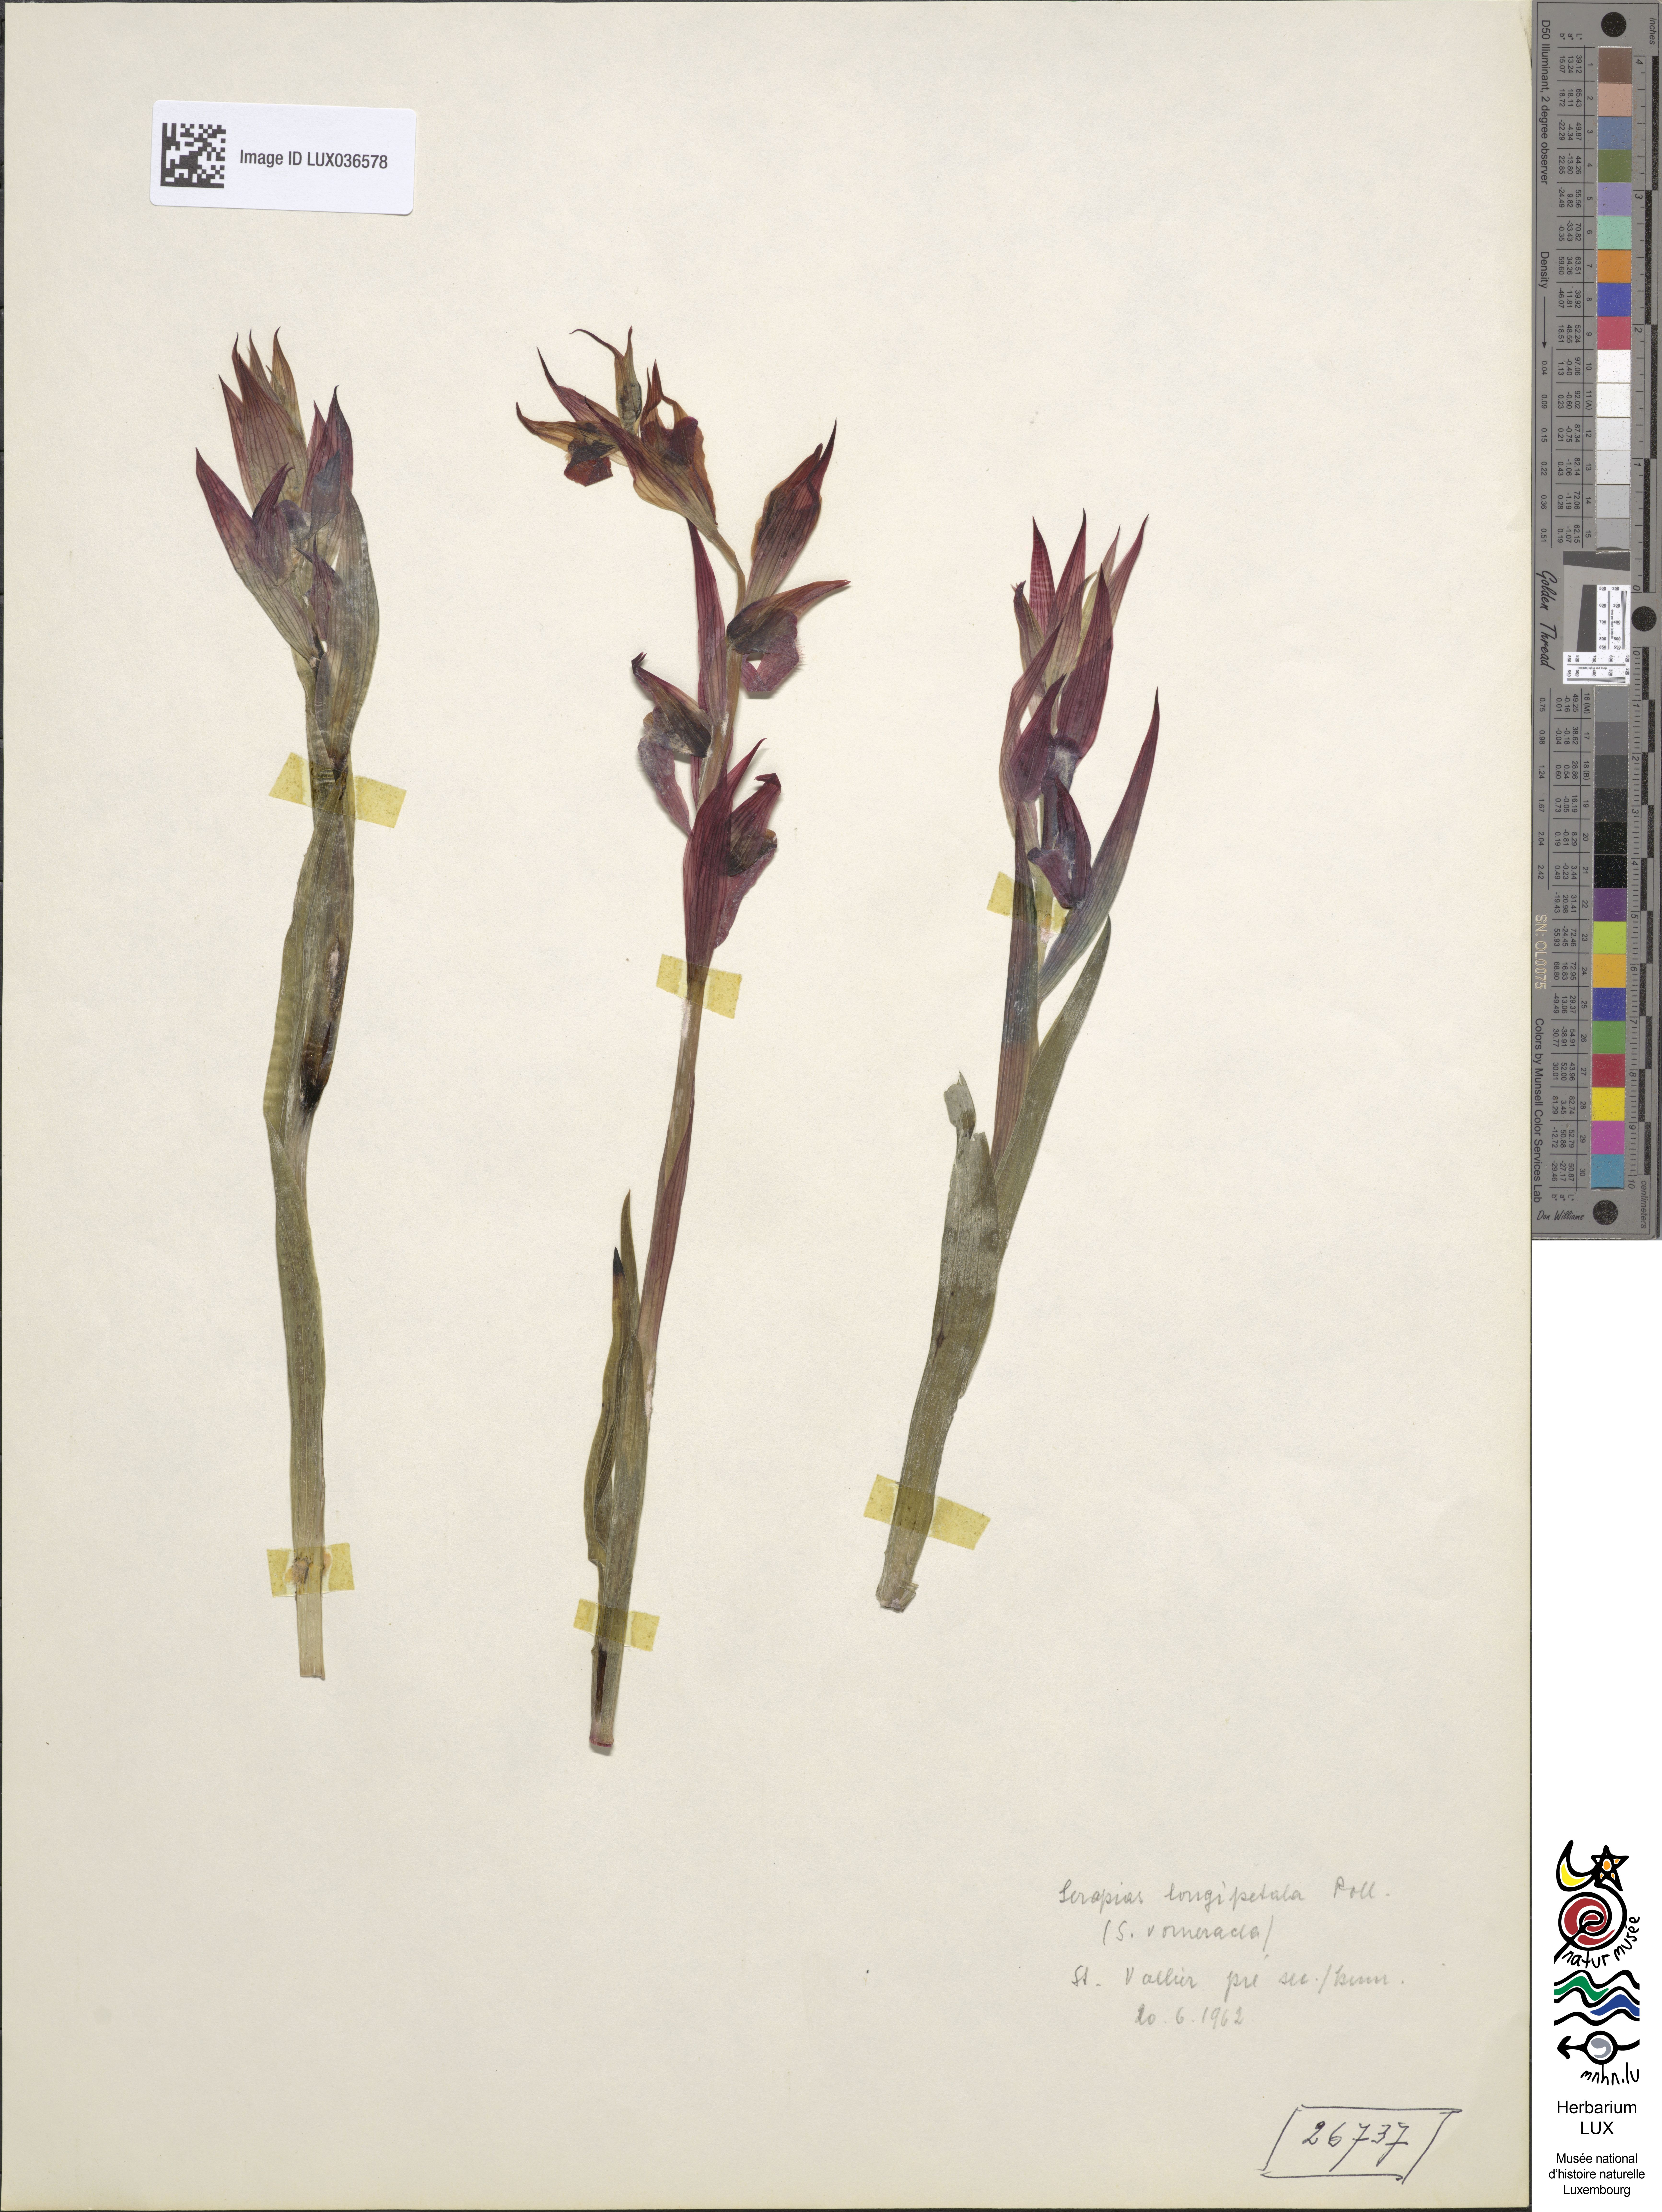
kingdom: Plantae
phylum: Tracheophyta
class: Liliopsida
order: Asparagales
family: Orchidaceae
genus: Serapias
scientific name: Serapias vomeracea
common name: Long-lipped tongue-orchid
